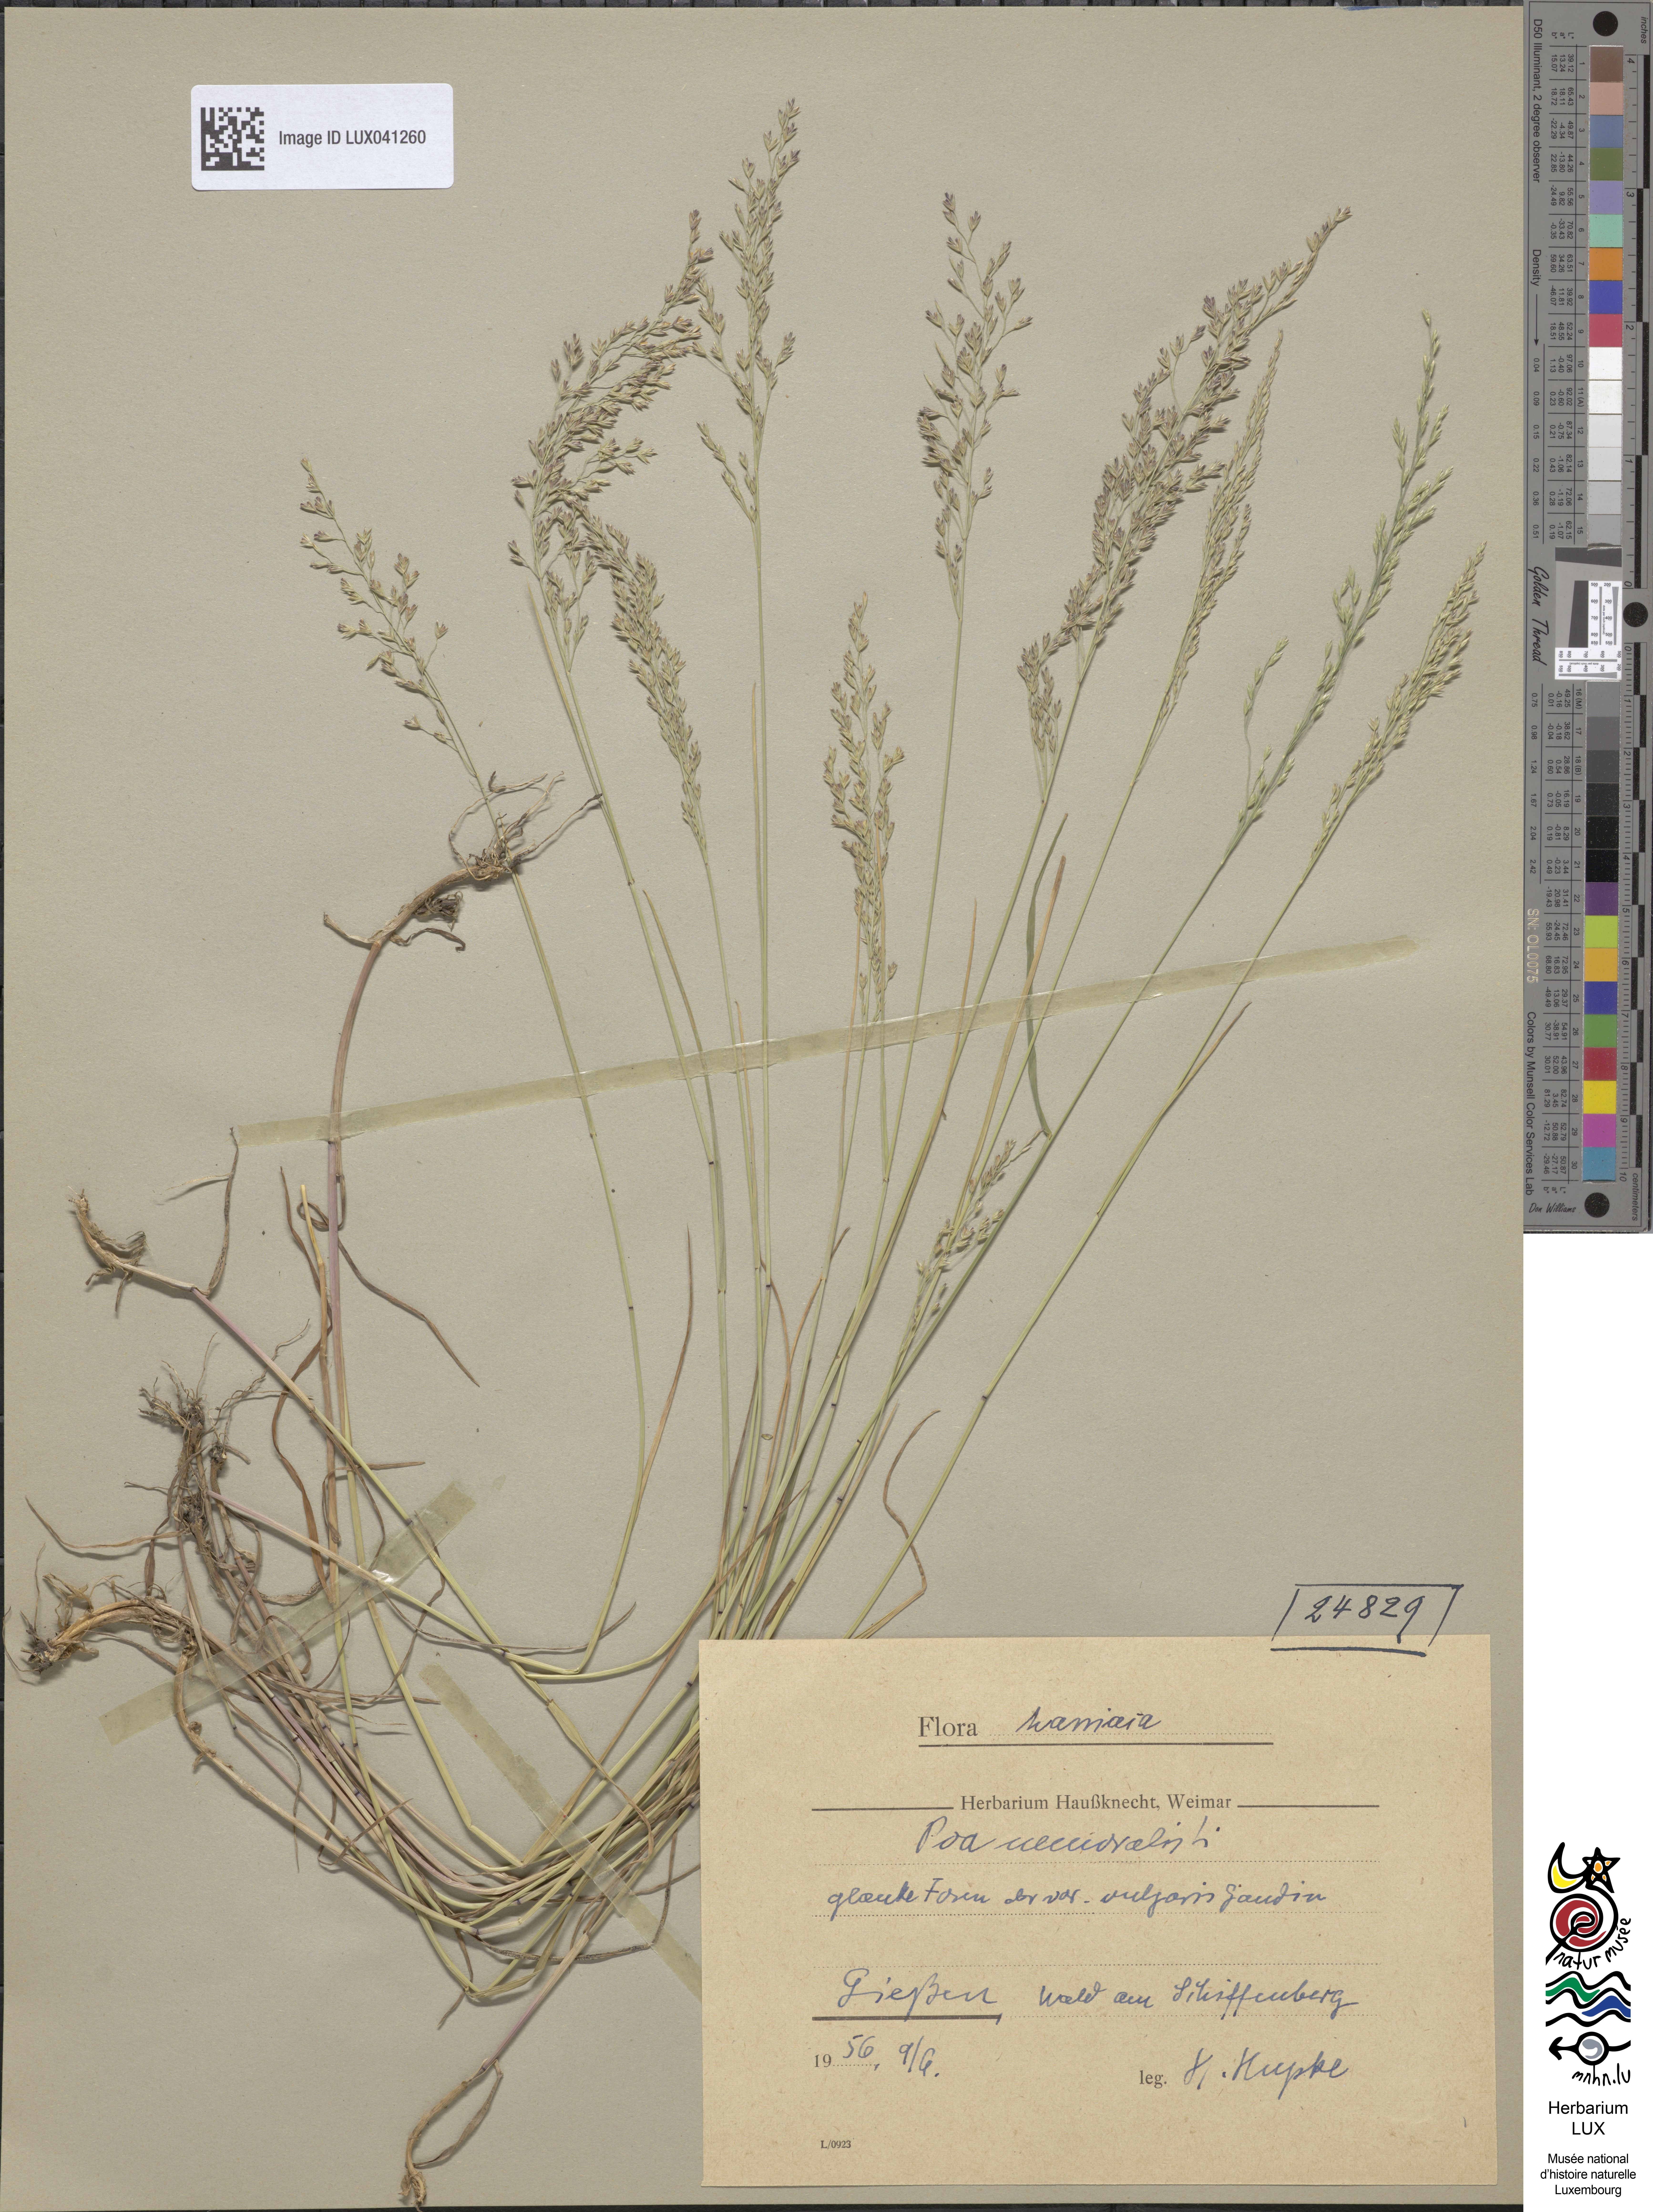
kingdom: Plantae
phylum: Tracheophyta
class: Liliopsida
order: Poales
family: Poaceae
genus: Poa
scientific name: Poa nemoralis
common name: Wood bluegrass
